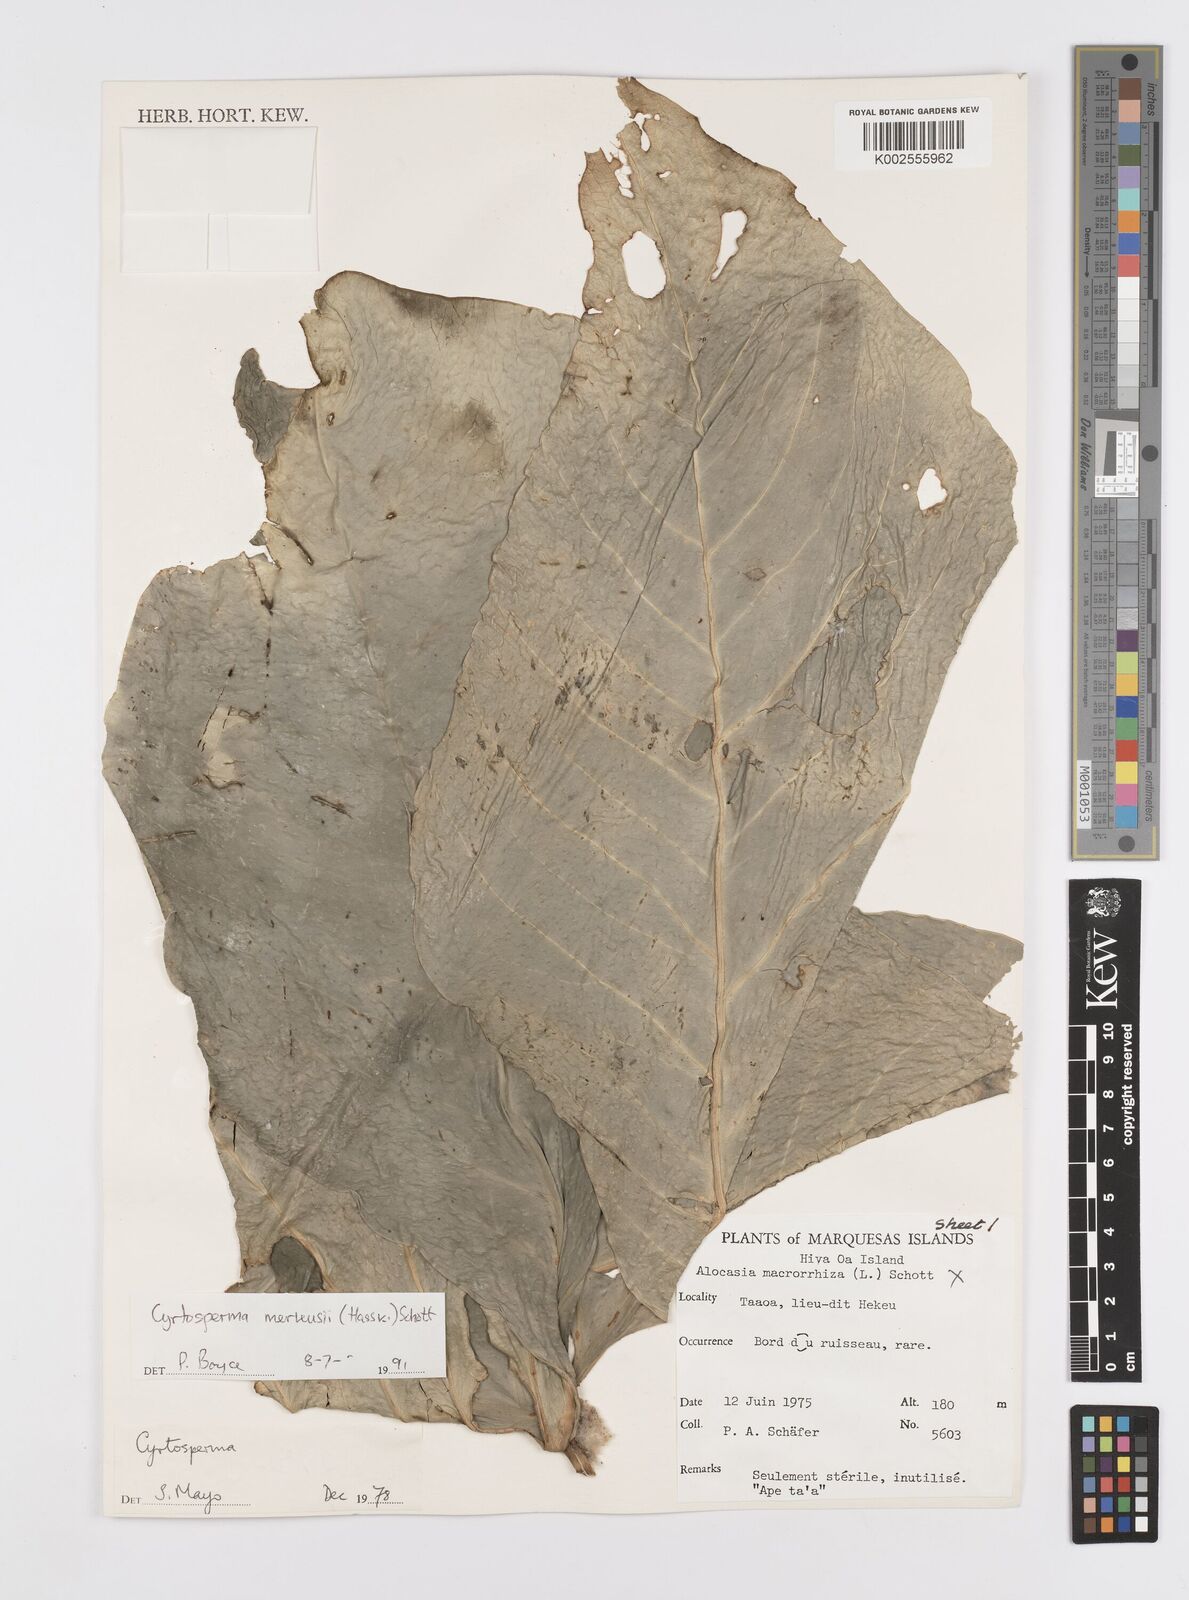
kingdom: Plantae
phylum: Tracheophyta
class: Liliopsida
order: Alismatales
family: Araceae
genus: Cyrtosperma
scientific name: Cyrtosperma merkusii
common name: Giant swamp-taro
